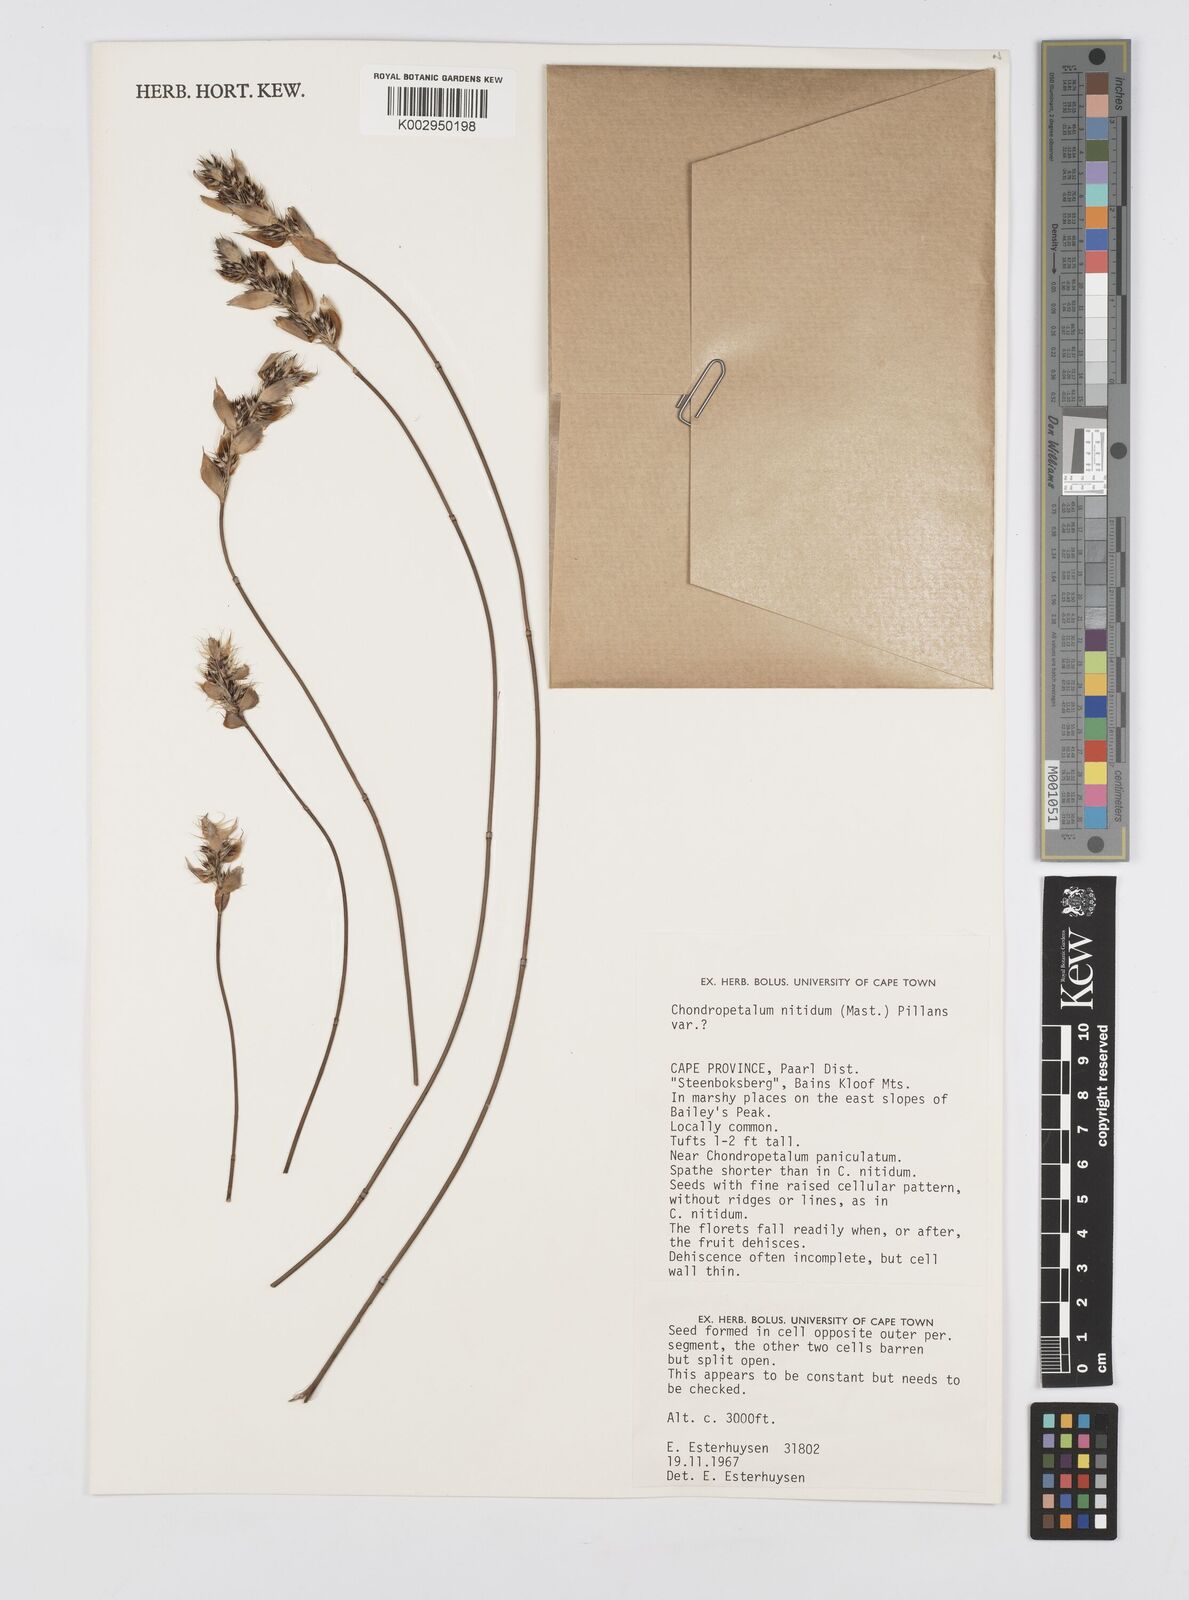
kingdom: Plantae
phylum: Tracheophyta
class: Liliopsida
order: Poales
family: Restionaceae
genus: Askidiosperma
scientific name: Askidiosperma nitidum
